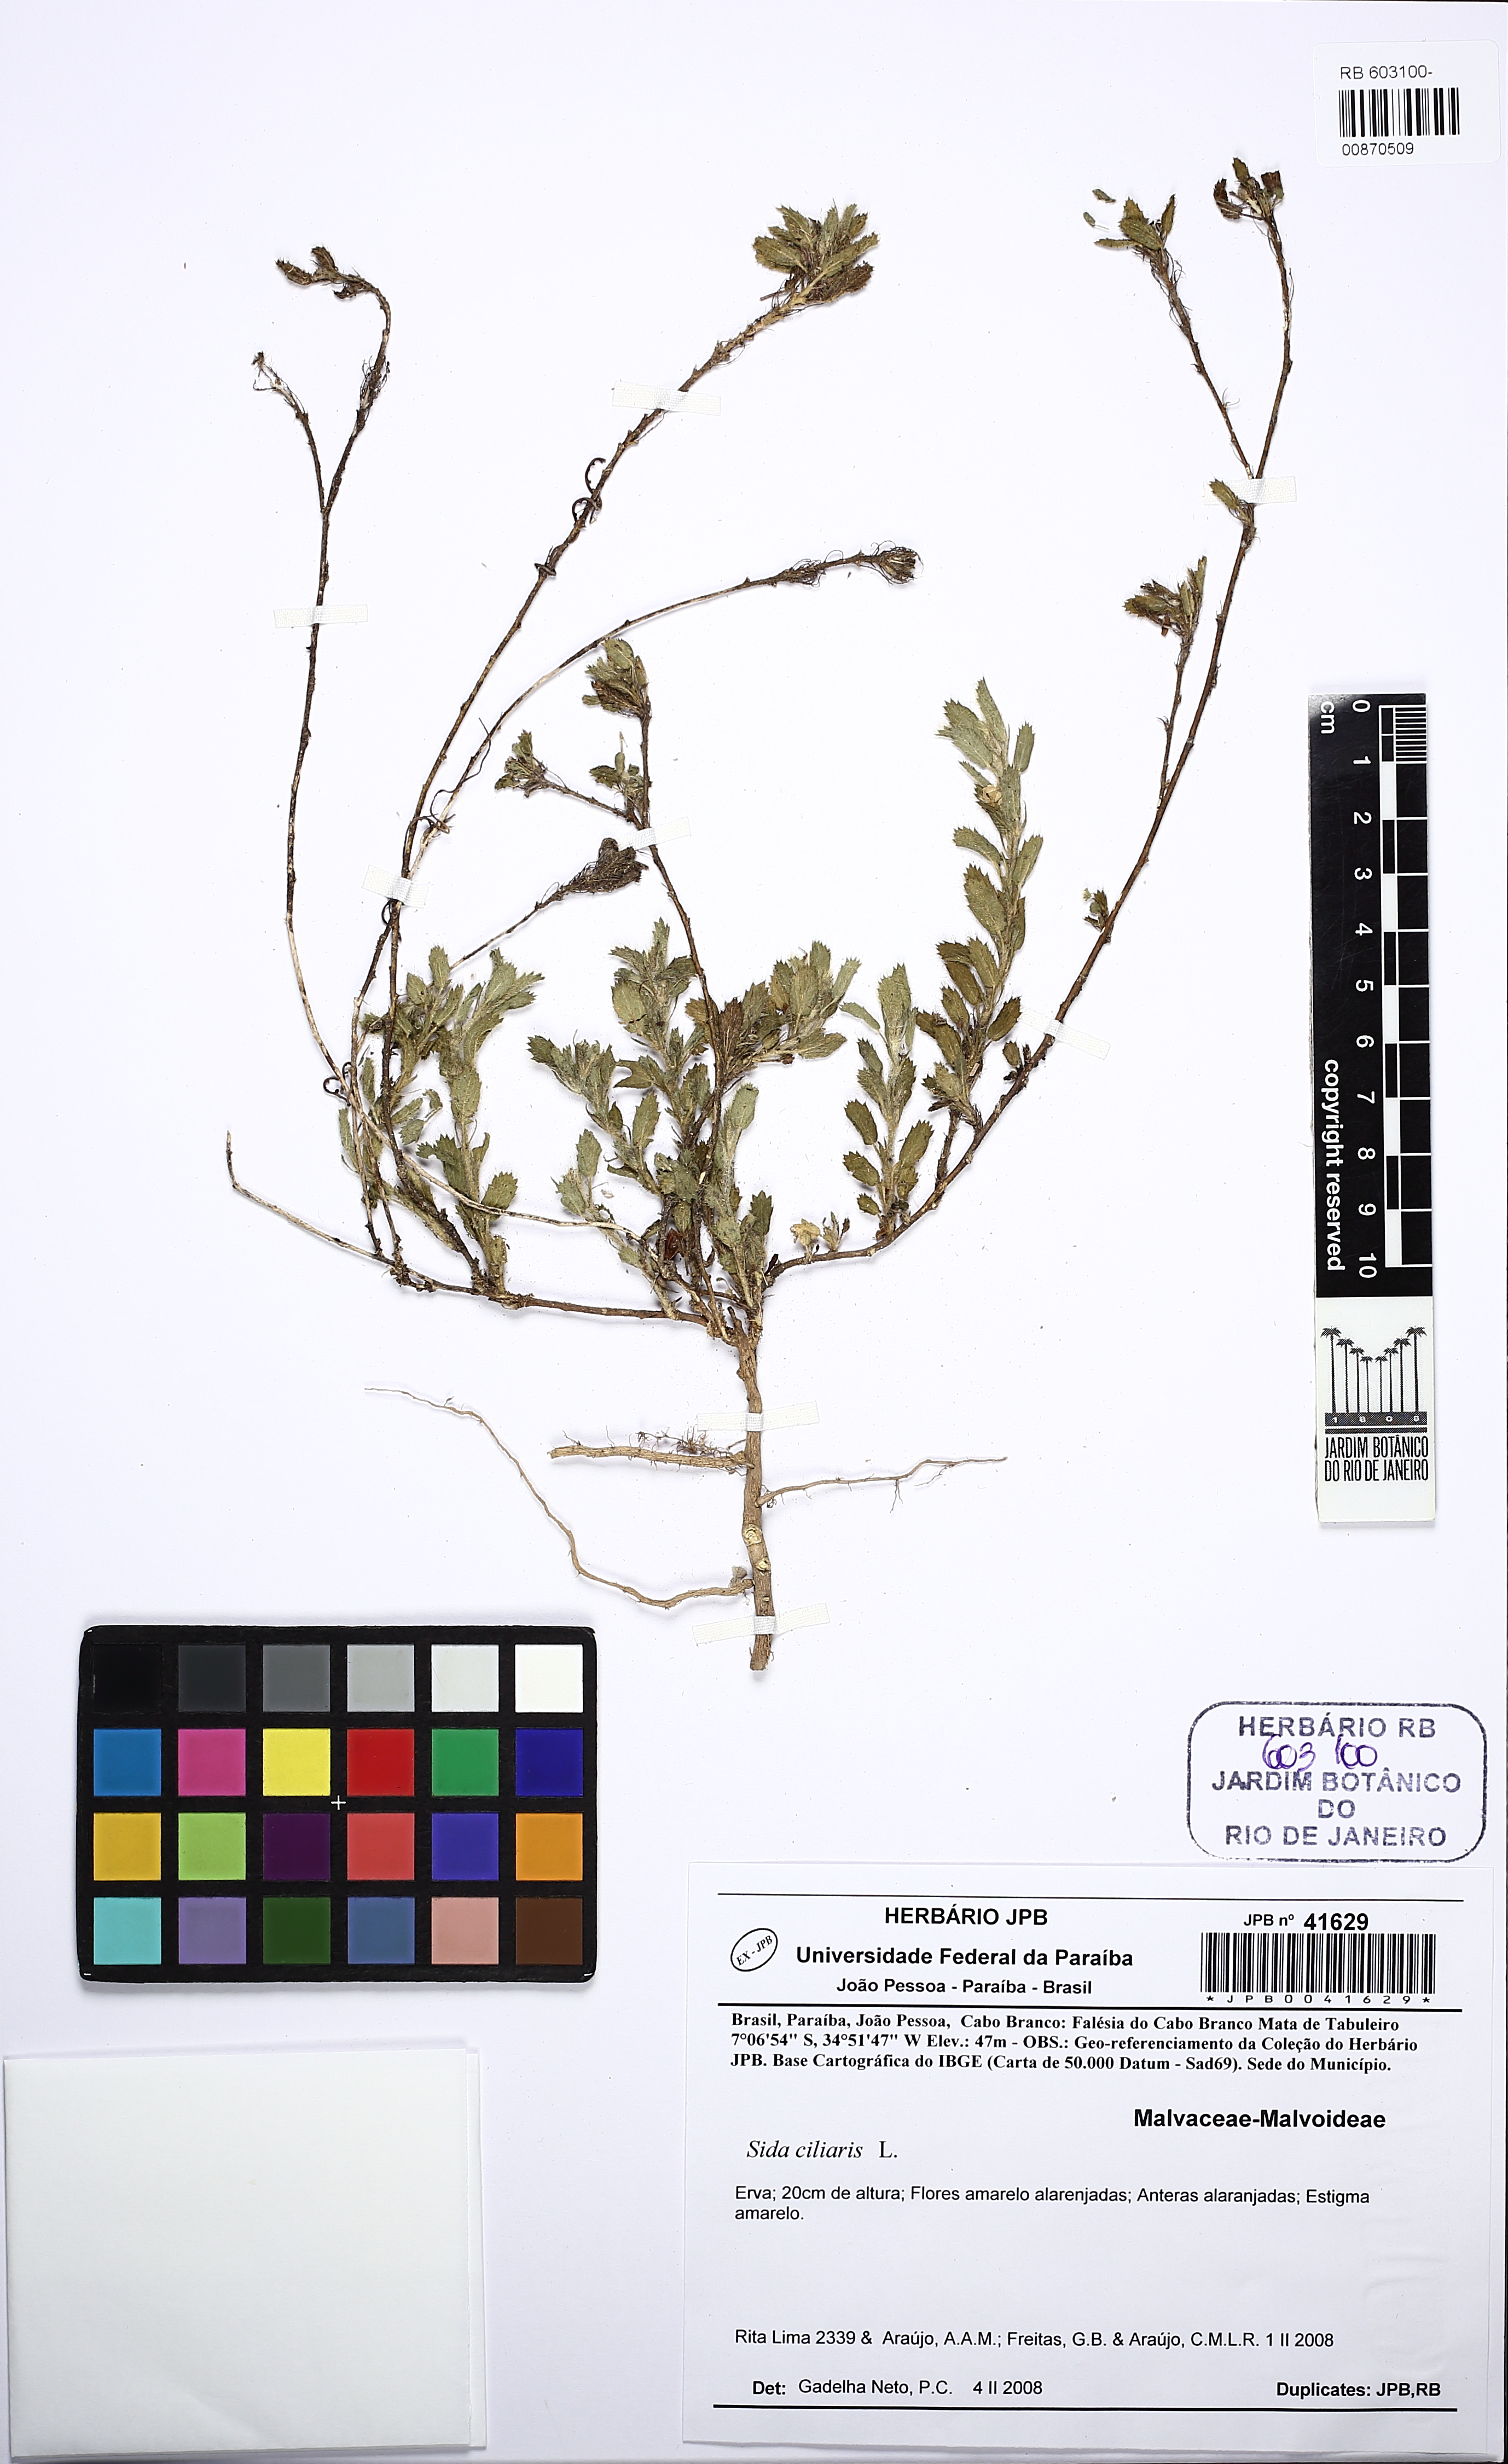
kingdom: Plantae
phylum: Tracheophyta
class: Magnoliopsida
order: Malvales
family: Malvaceae
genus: Sida
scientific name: Sida ciliaris
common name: Bracted fanpetals
